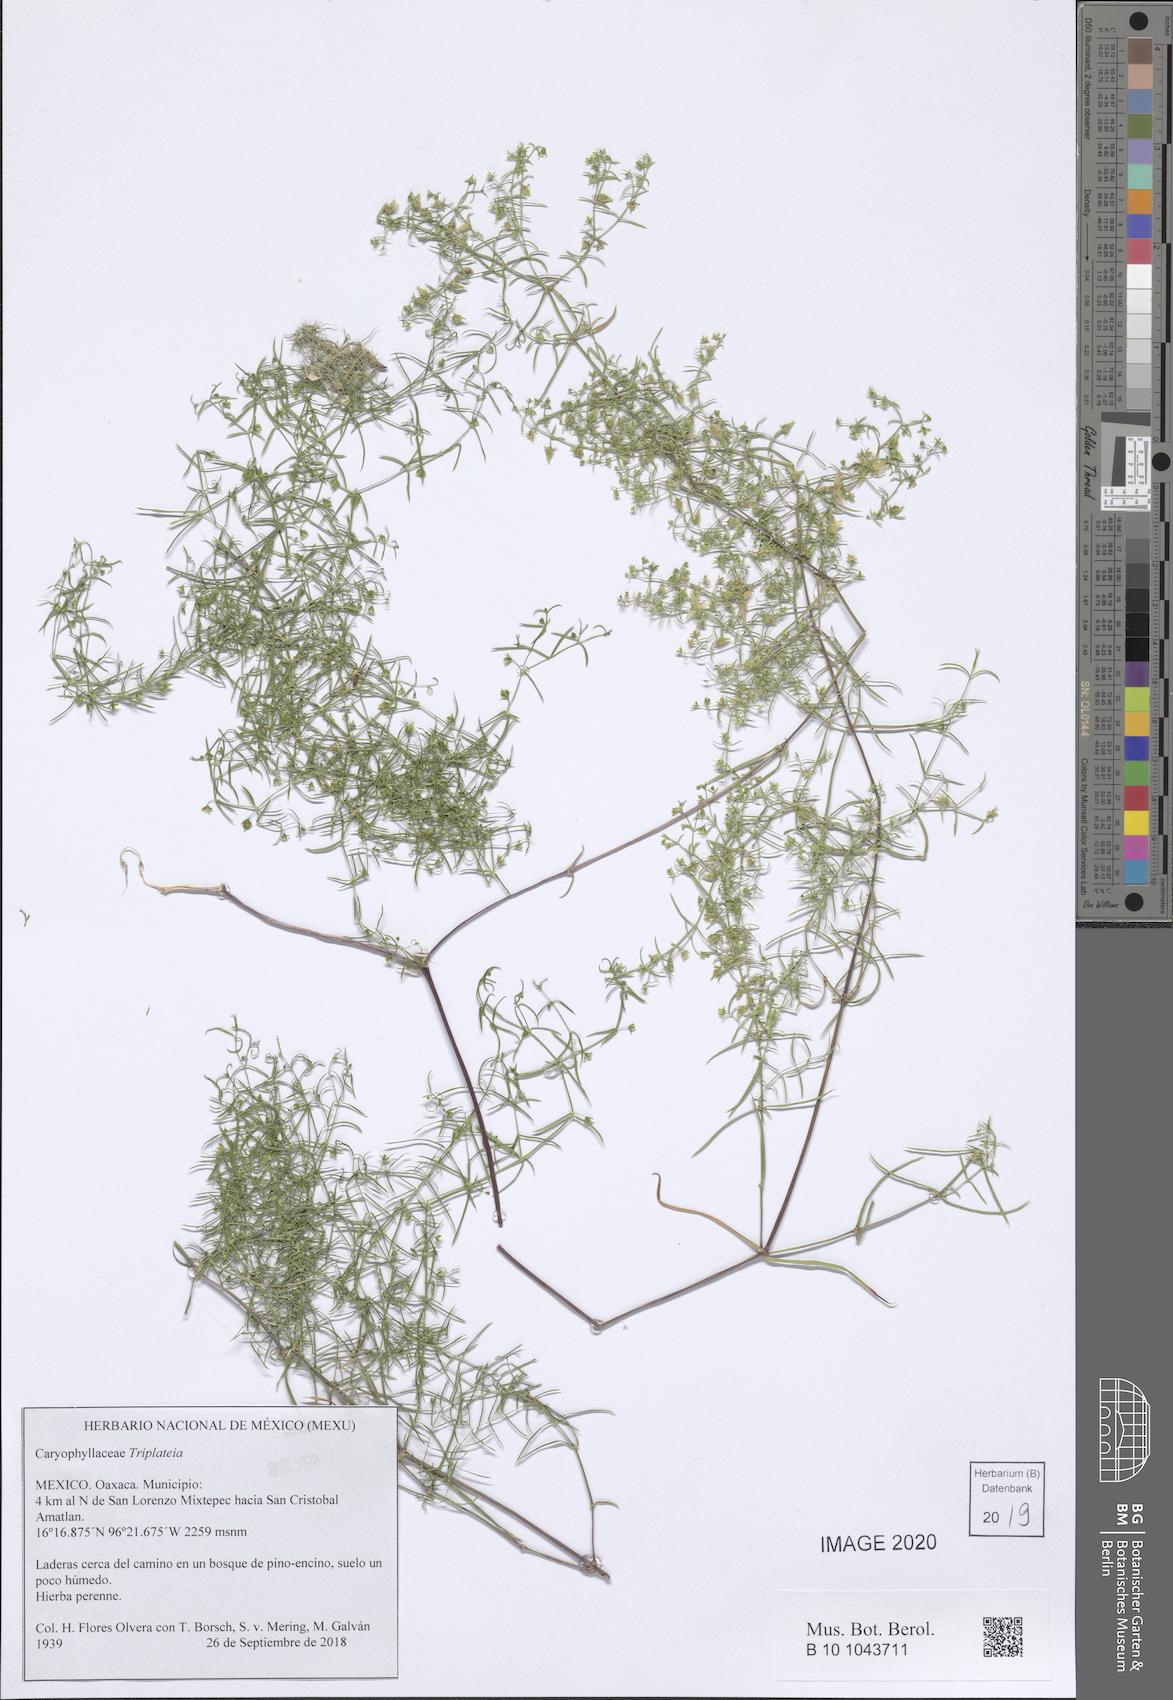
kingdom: Plantae
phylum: Tracheophyta
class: Magnoliopsida
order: Caryophyllales
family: Caryophyllaceae
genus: Triplateia
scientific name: Triplateia
